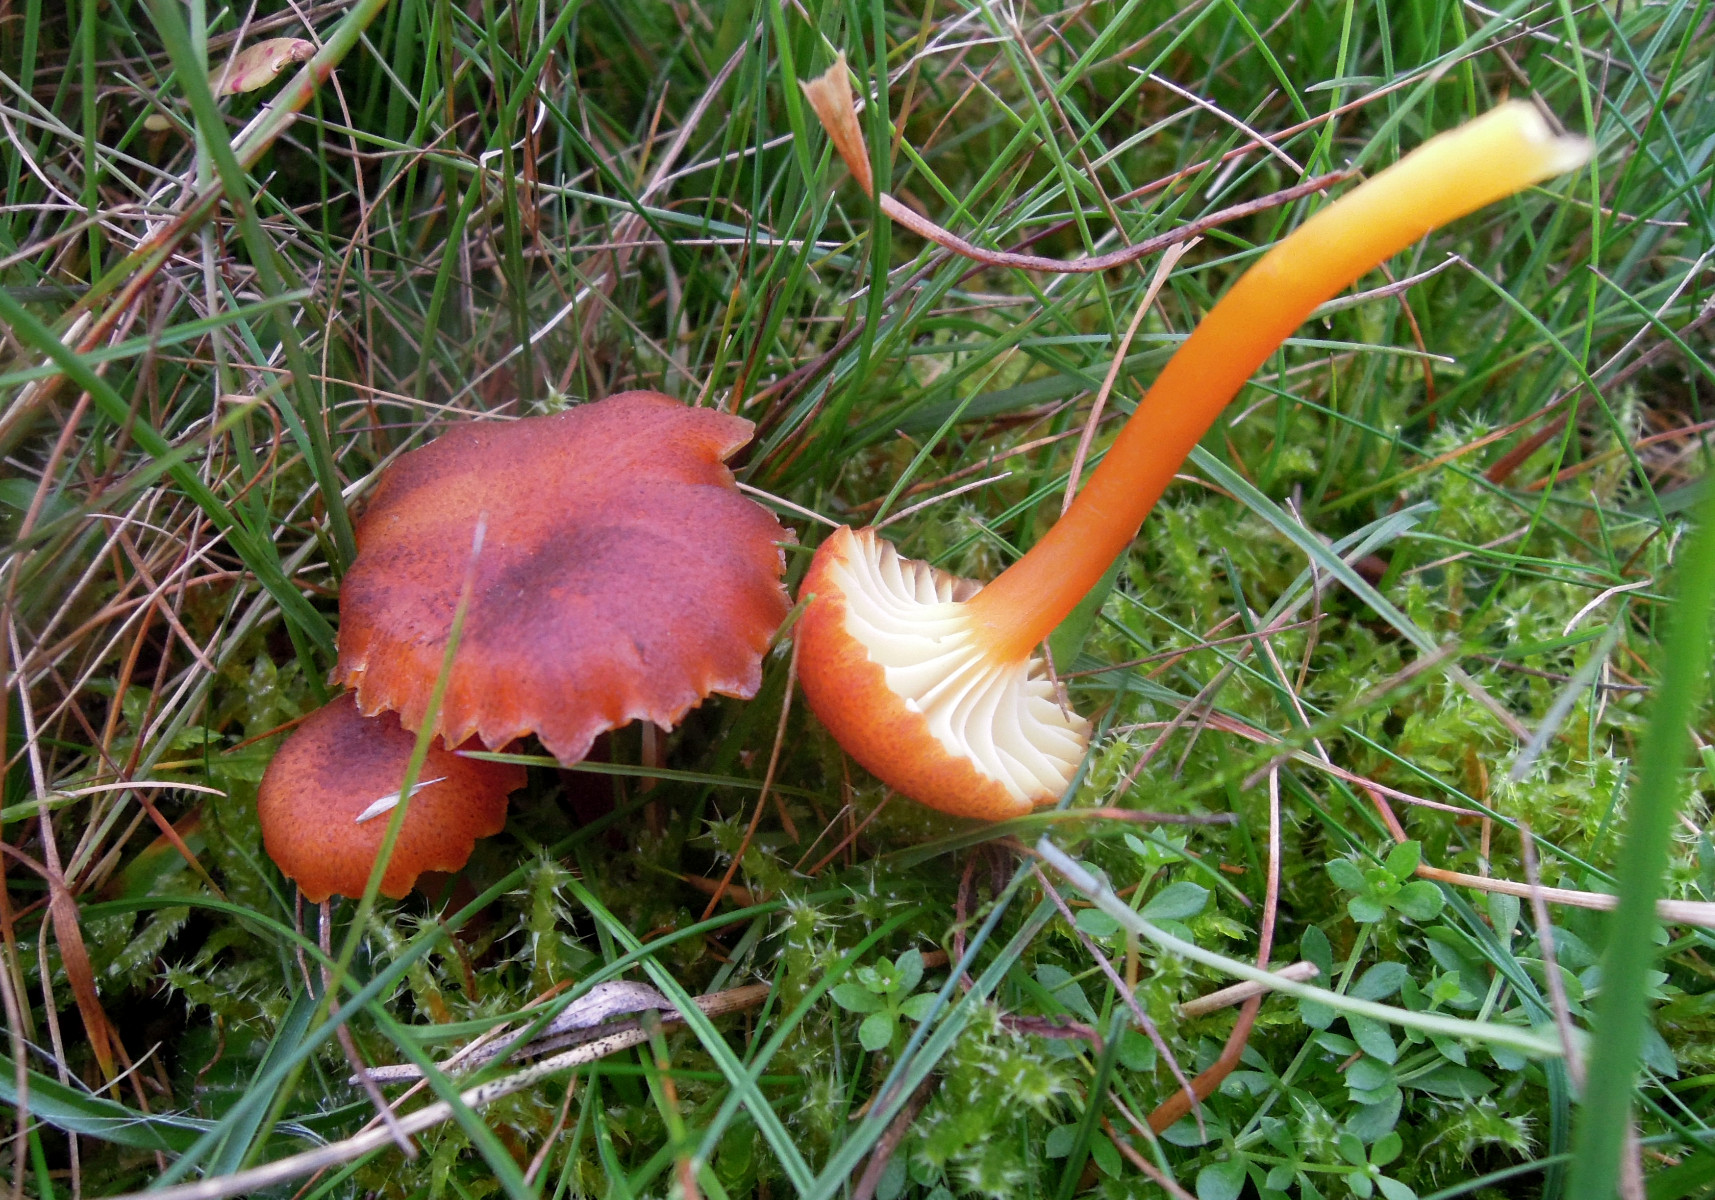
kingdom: Fungi
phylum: Basidiomycota
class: Agaricomycetes
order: Agaricales
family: Hygrophoraceae
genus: Hygrocybe
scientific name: Hygrocybe turunda
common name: sortskællet vokshat
